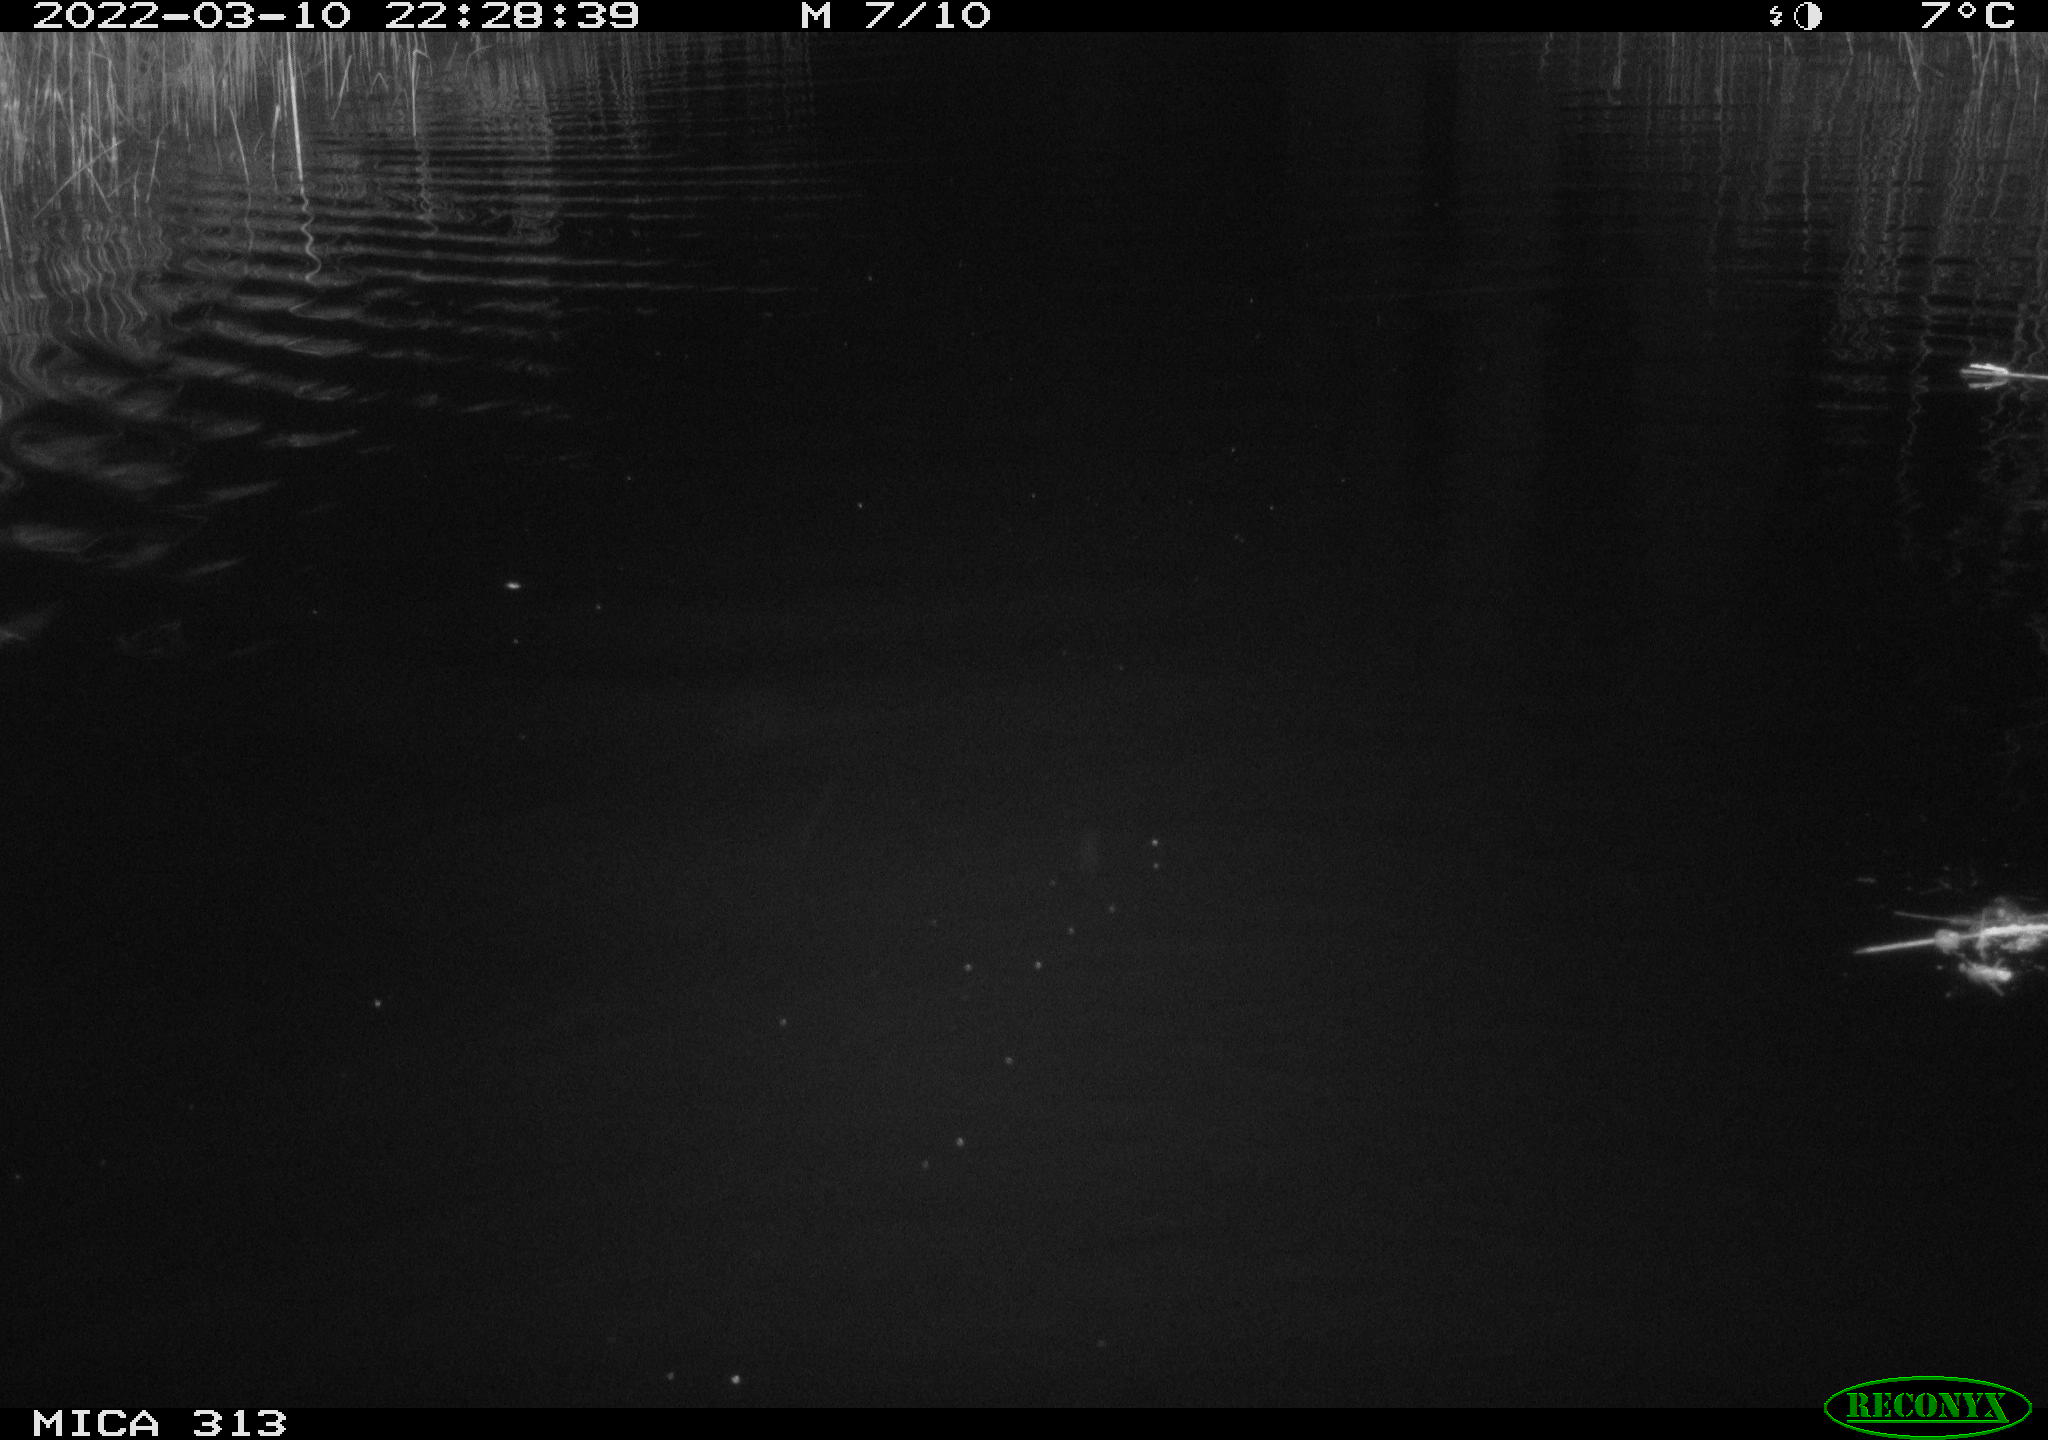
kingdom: Animalia
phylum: Chordata
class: Mammalia
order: Rodentia
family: Cricetidae
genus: Ondatra
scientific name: Ondatra zibethicus
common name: Muskrat
